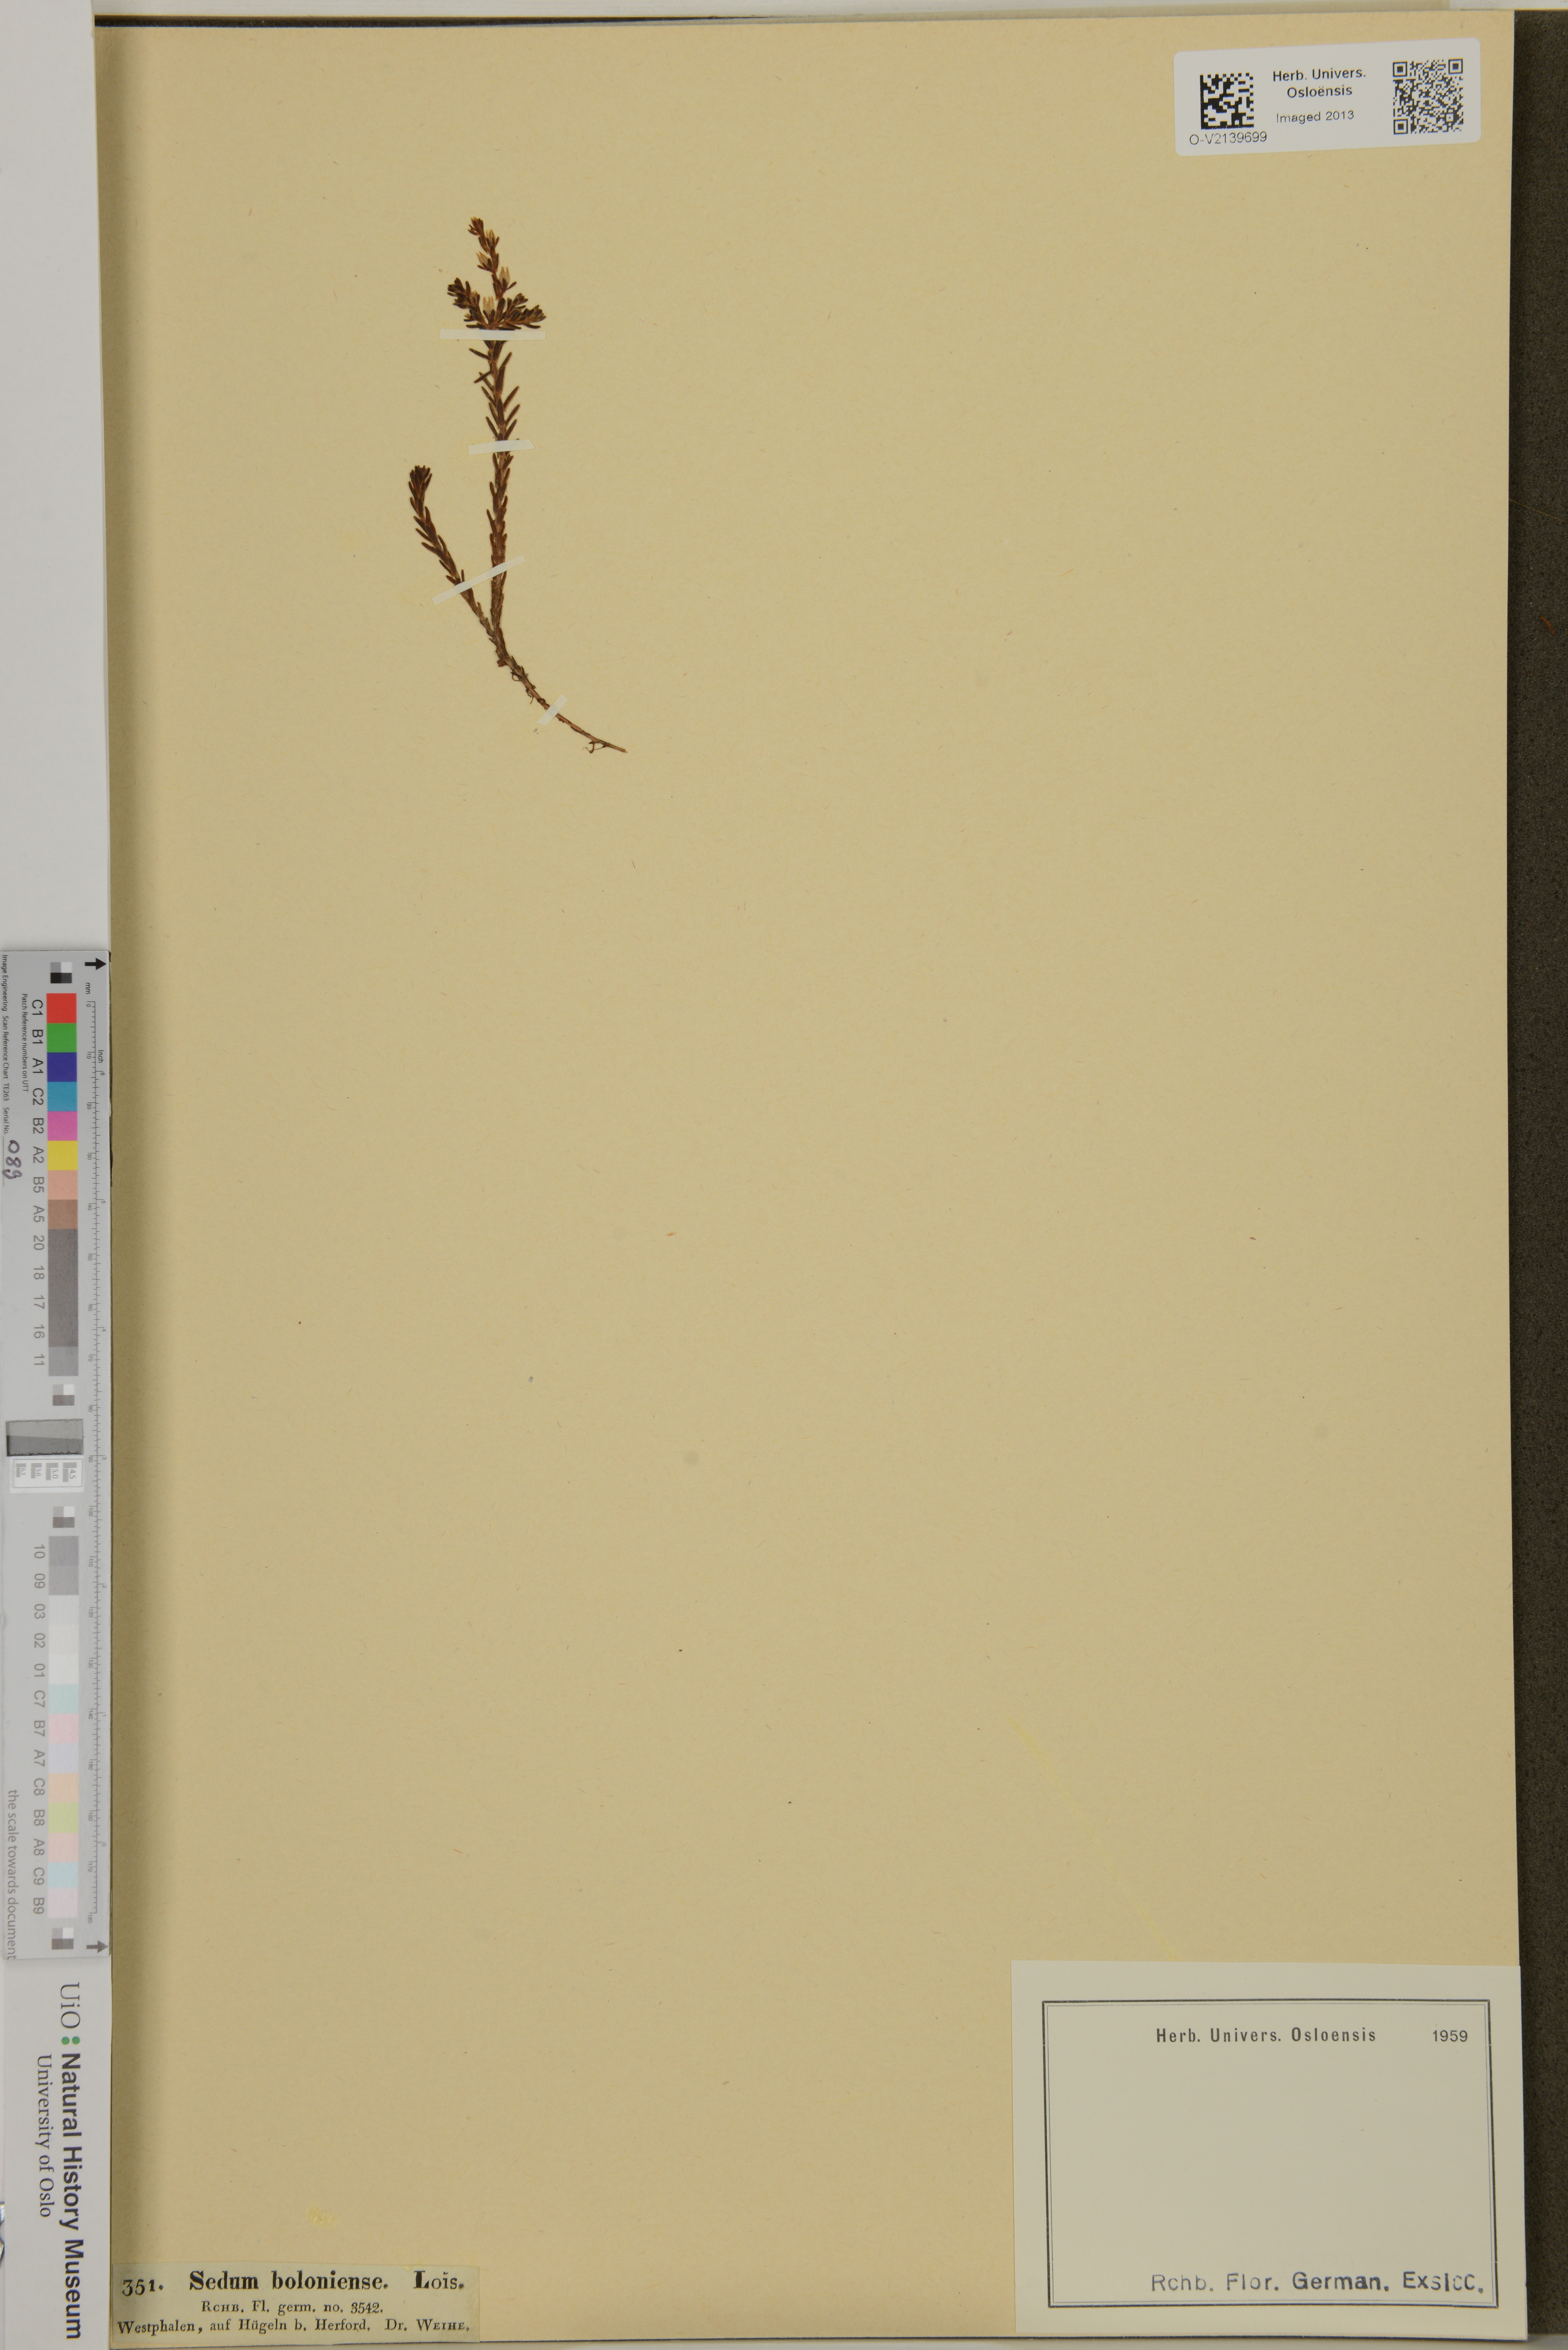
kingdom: Plantae
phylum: Tracheophyta
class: Magnoliopsida
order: Saxifragales
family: Crassulaceae
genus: Sedum
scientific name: Sedum sexangulare
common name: Tasteless stonecrop
